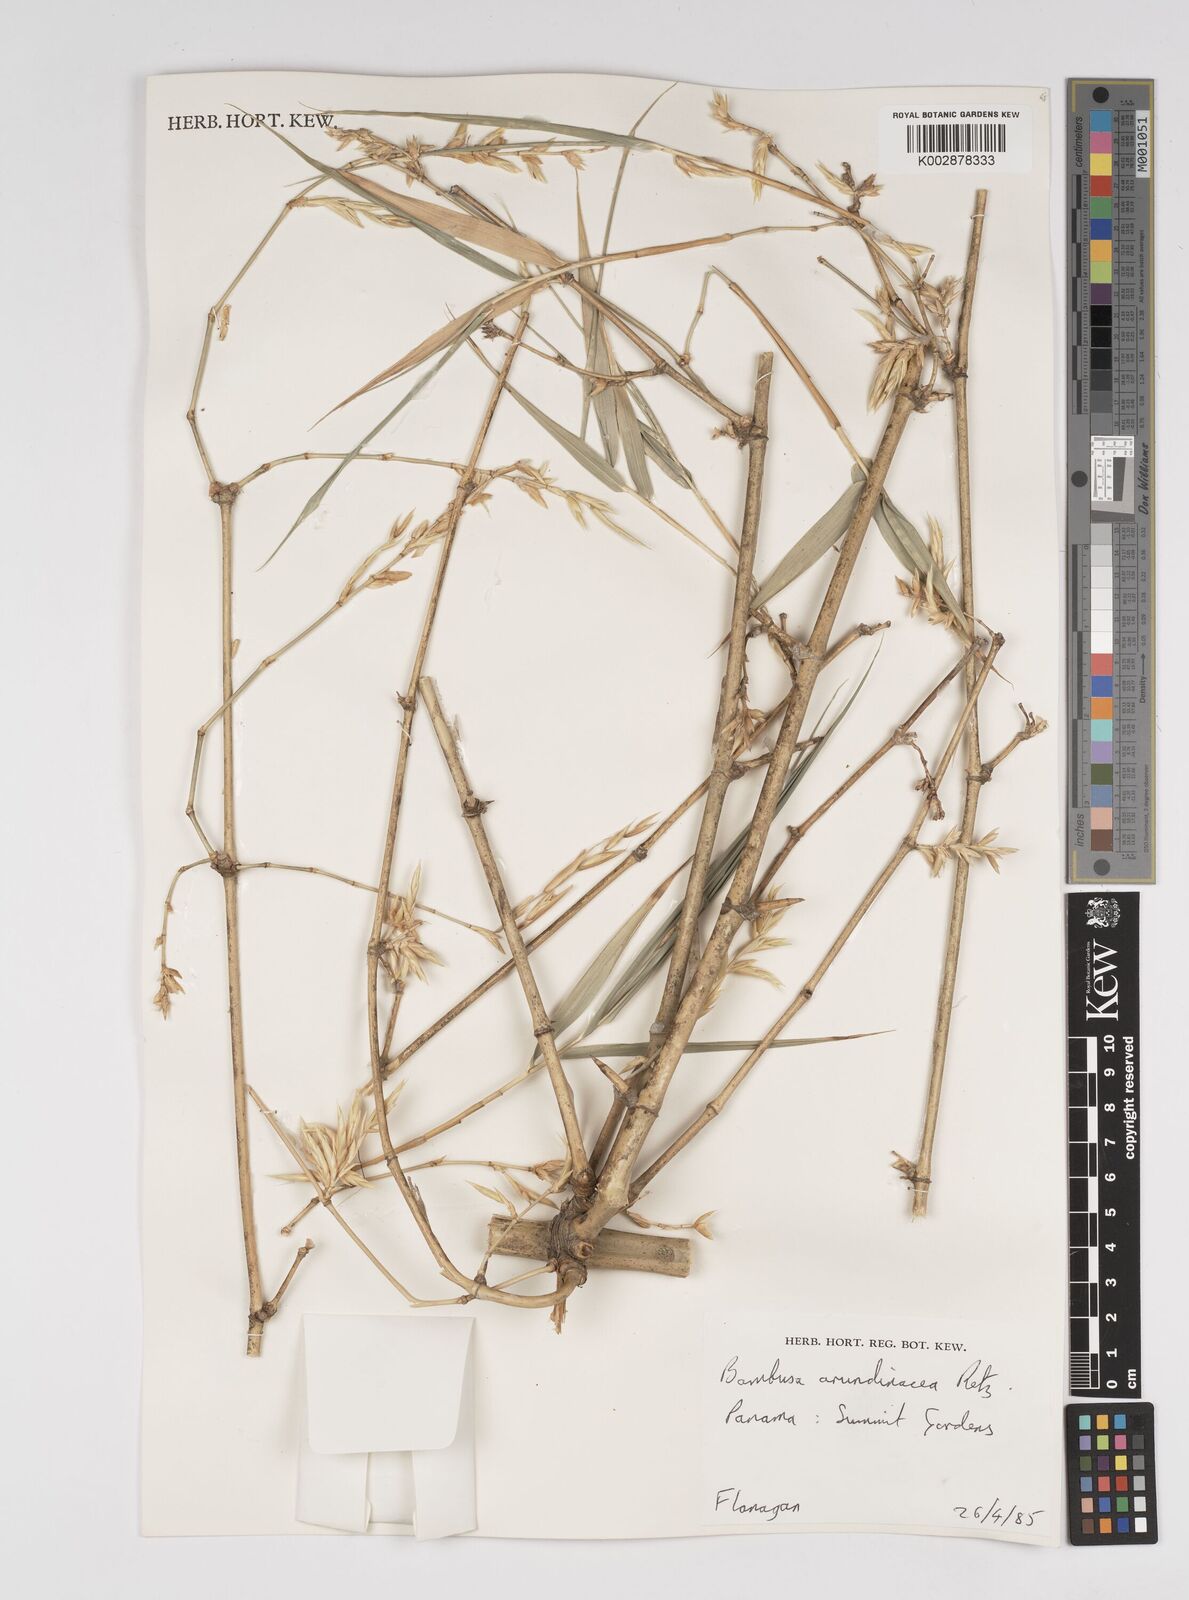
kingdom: Plantae
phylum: Tracheophyta
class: Liliopsida
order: Poales
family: Poaceae
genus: Bambusa
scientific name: Bambusa bambos
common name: Indian thorny bamboo
